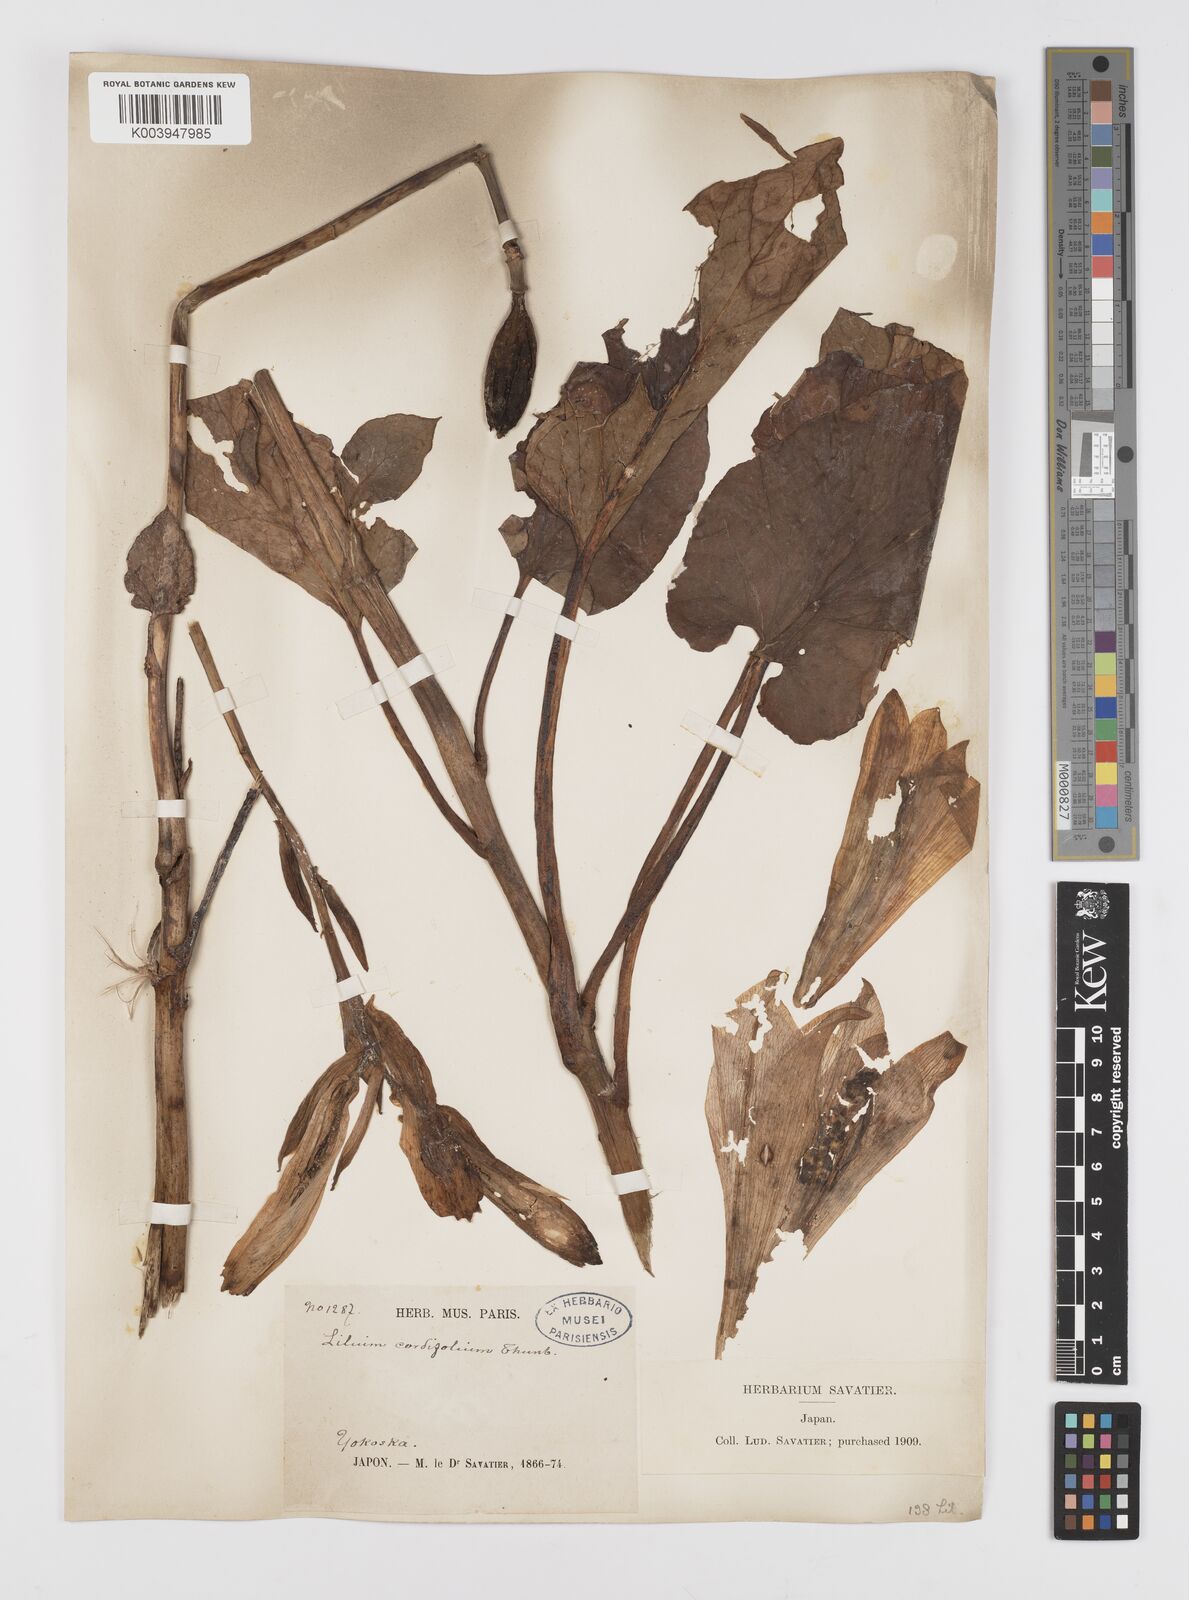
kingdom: Plantae
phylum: Tracheophyta
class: Liliopsida
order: Liliales
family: Liliaceae
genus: Cardiocrinum
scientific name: Cardiocrinum
